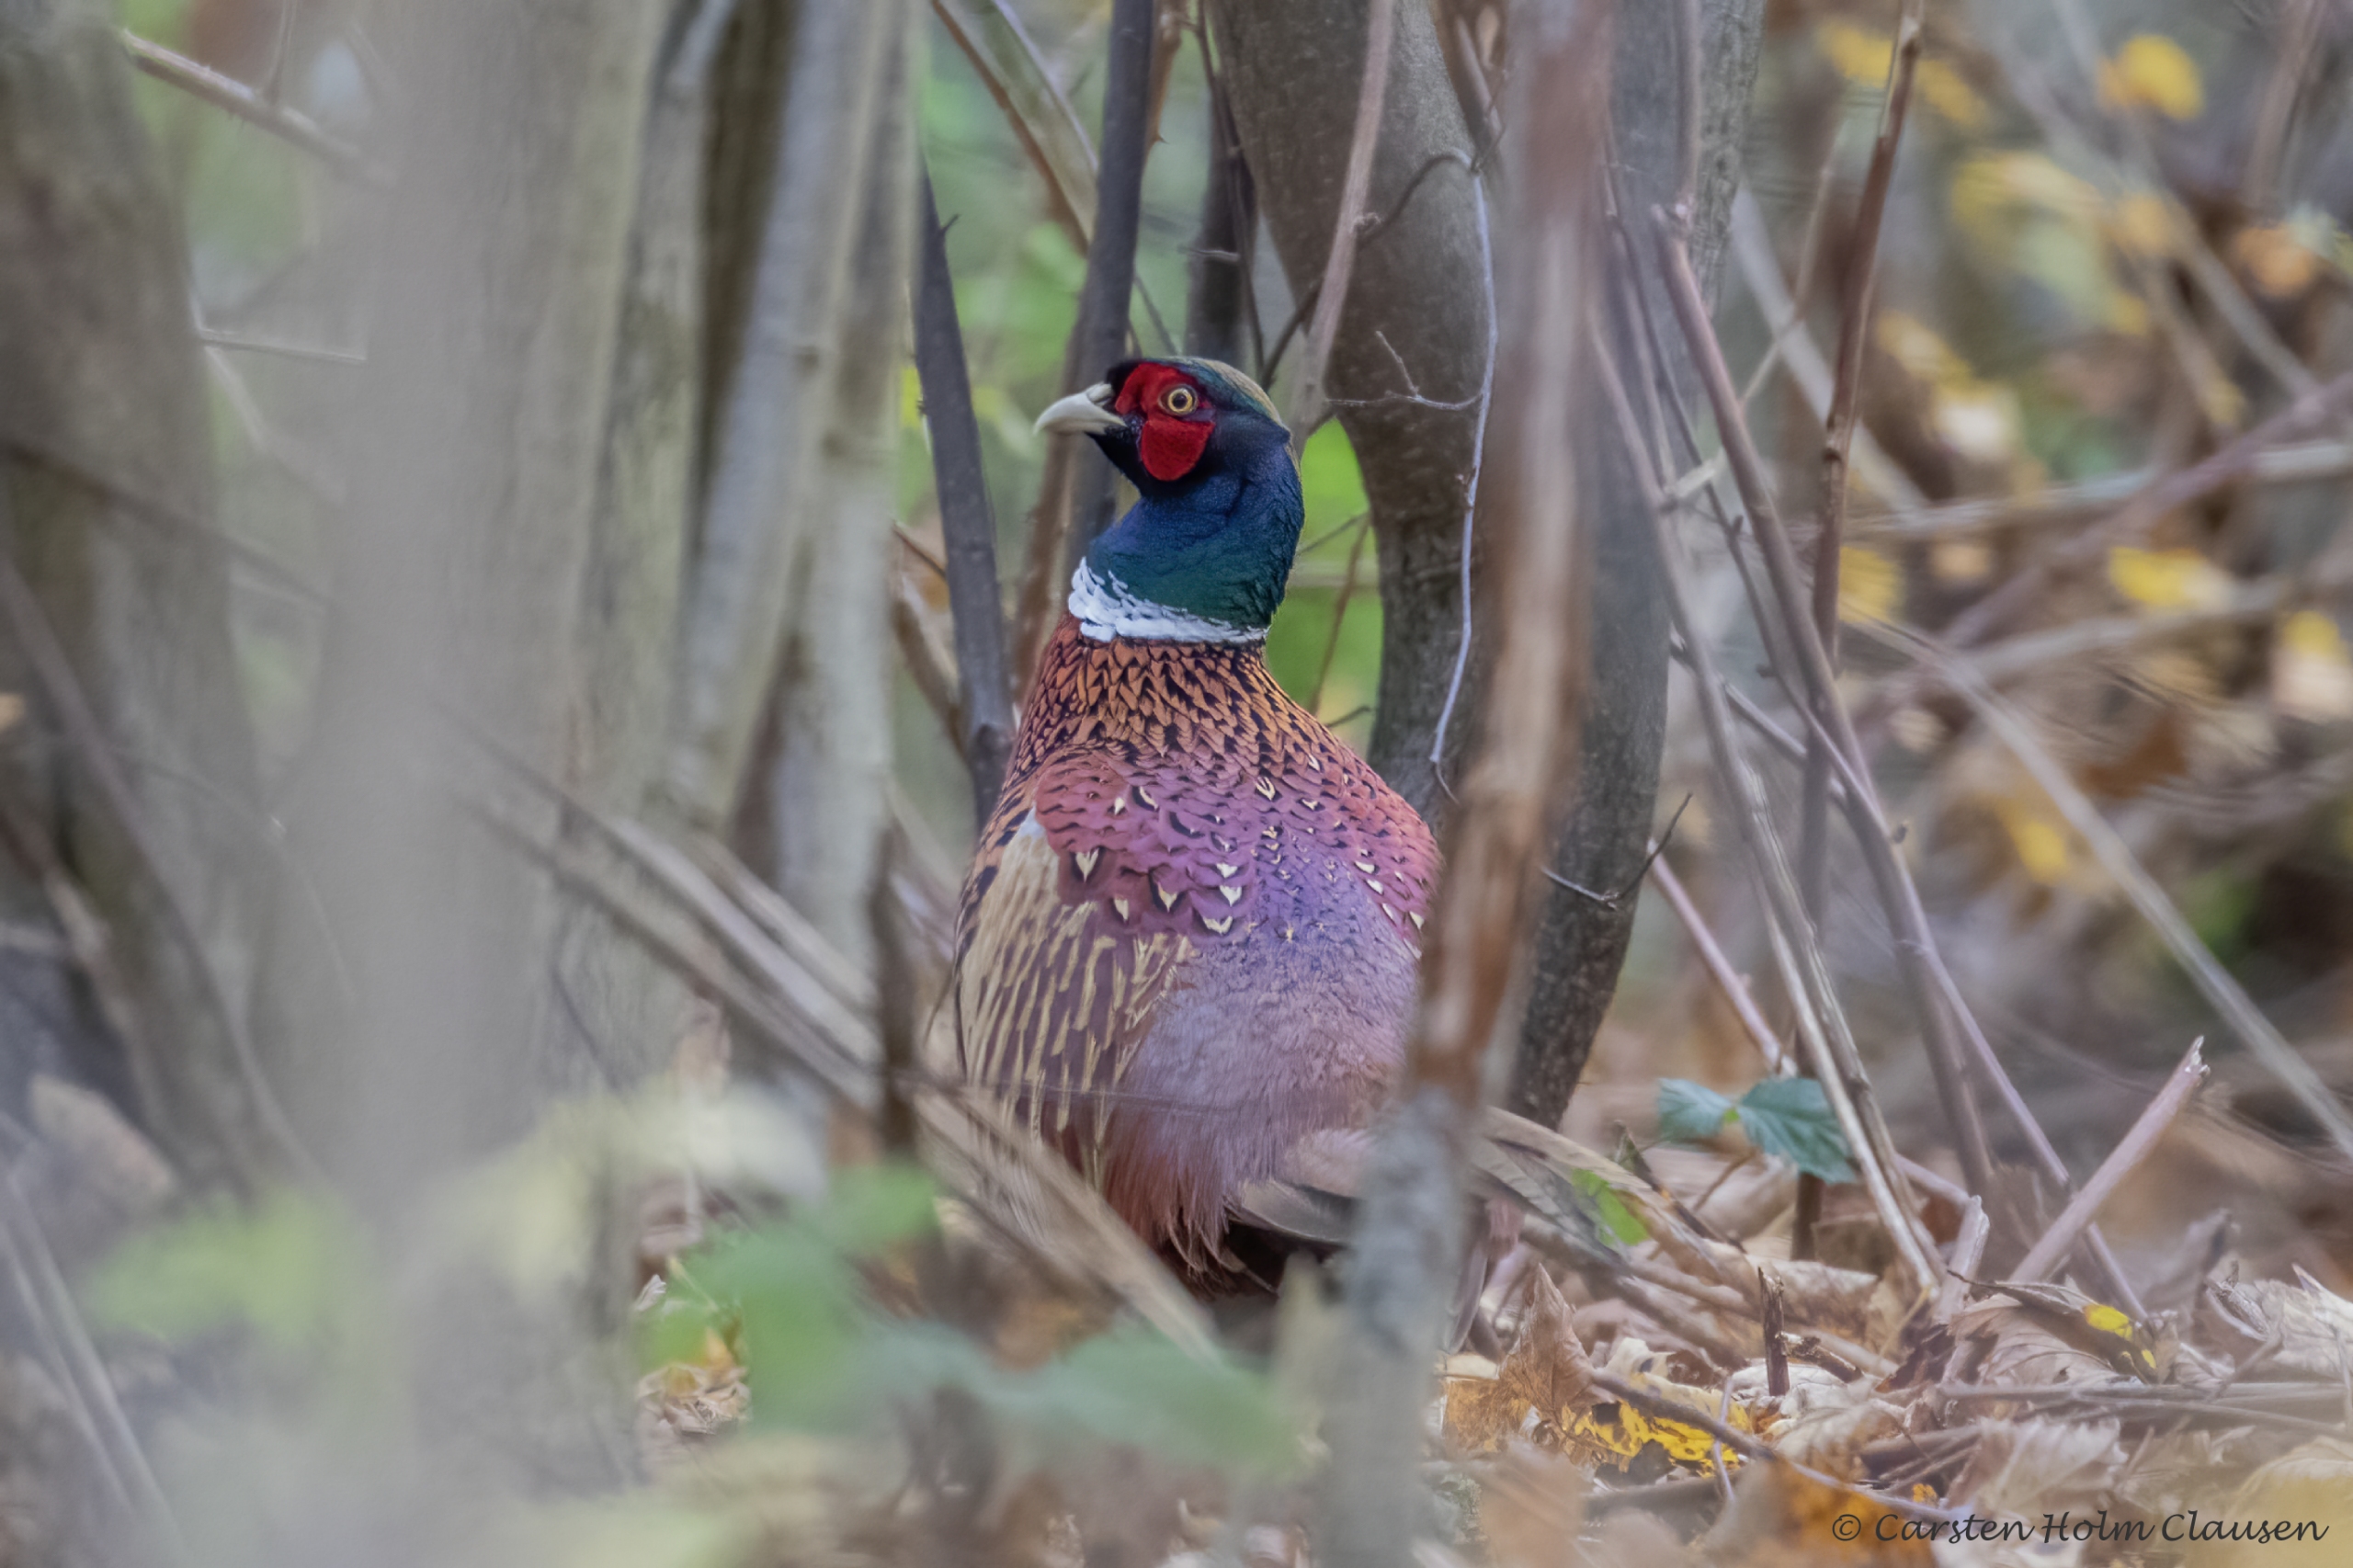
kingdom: Animalia
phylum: Chordata
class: Aves
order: Galliformes
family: Phasianidae
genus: Phasianus
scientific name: Phasianus colchicus
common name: Fasan
